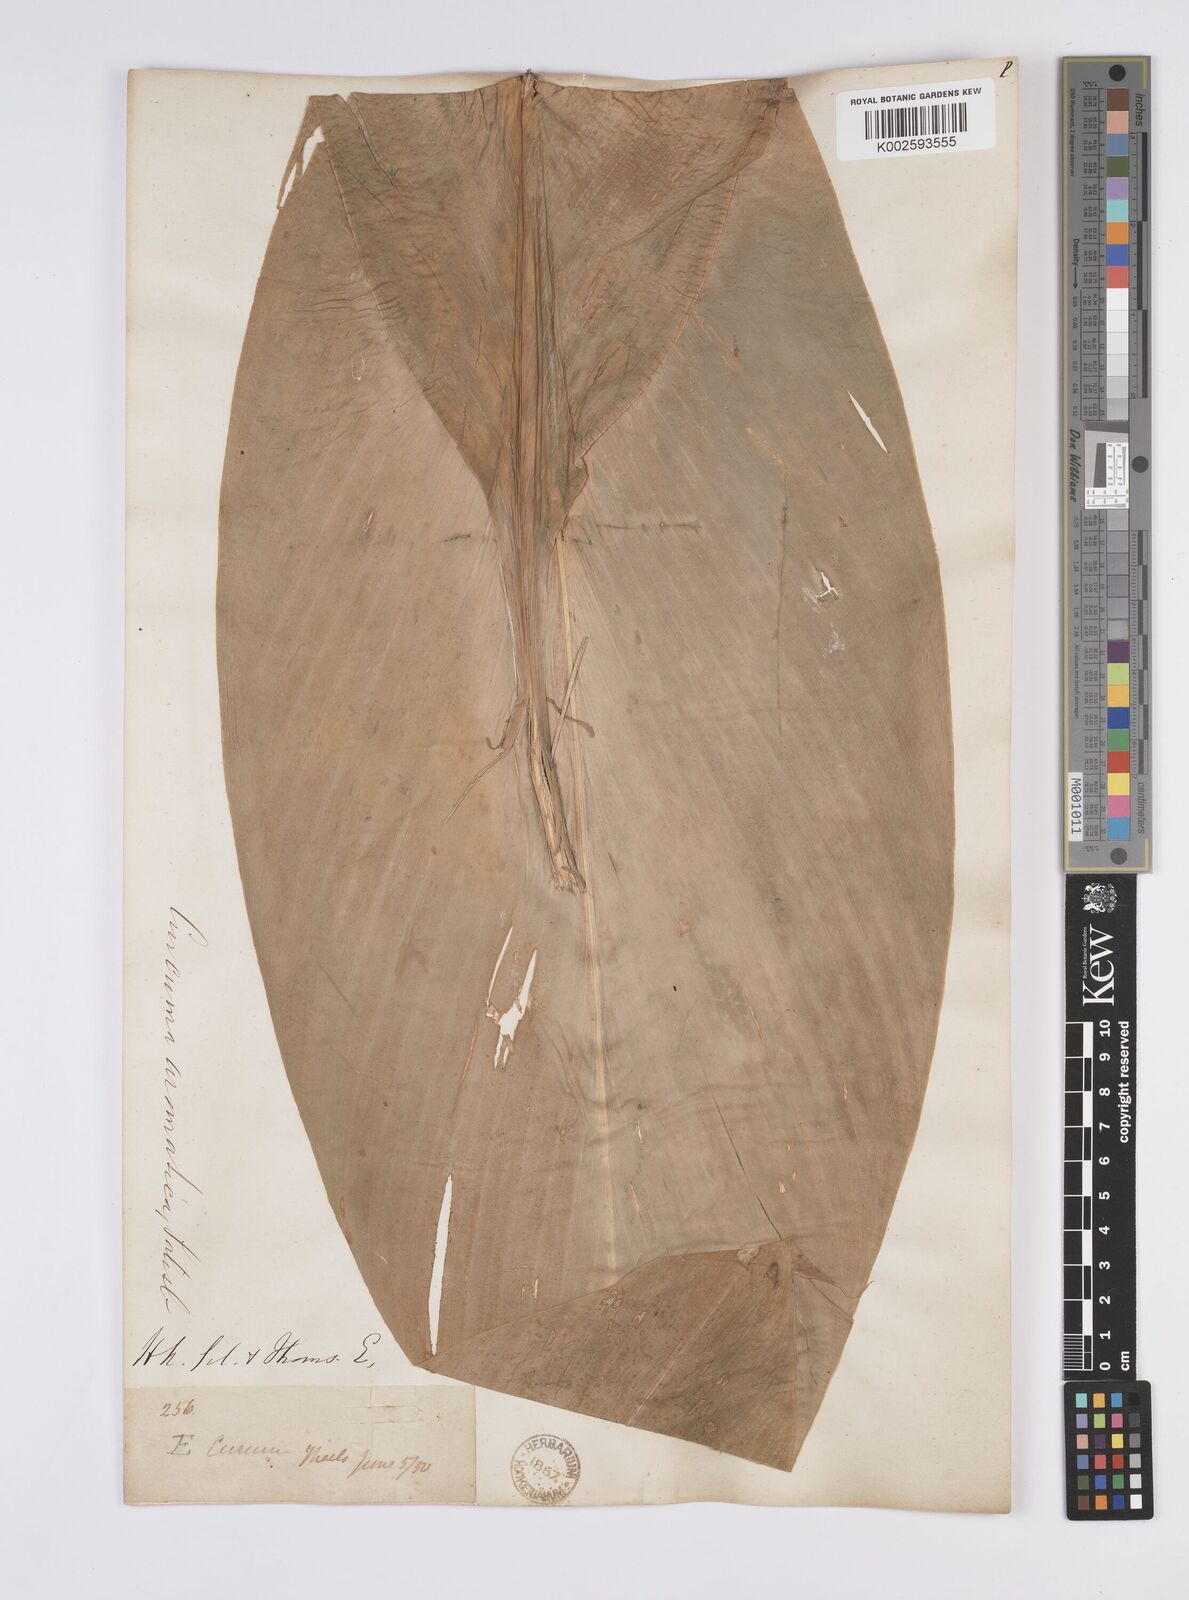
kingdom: Plantae
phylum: Tracheophyta
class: Liliopsida
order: Zingiberales
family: Zingiberaceae
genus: Curcuma
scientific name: Curcuma aromatica
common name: Wild turmeric
